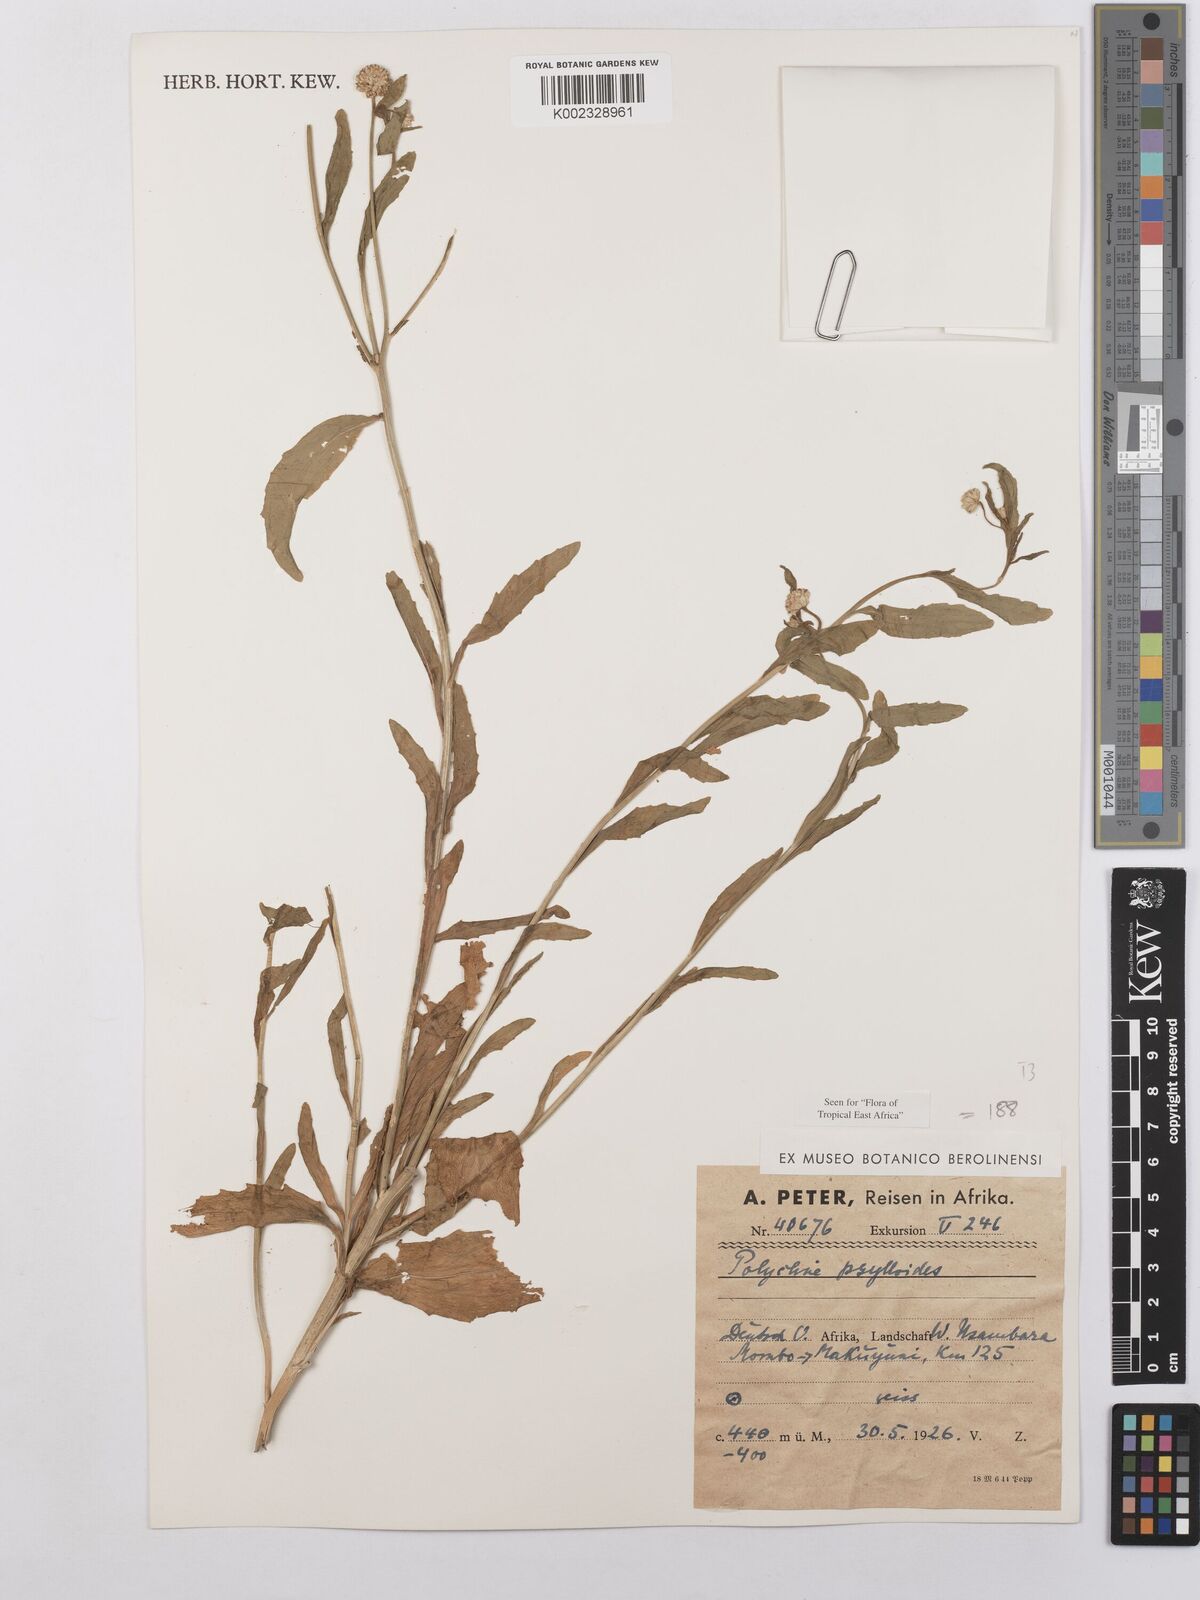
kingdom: Plantae
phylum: Tracheophyta
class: Magnoliopsida
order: Asterales
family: Asteraceae
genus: Athroisma
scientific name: Athroisma gracile
